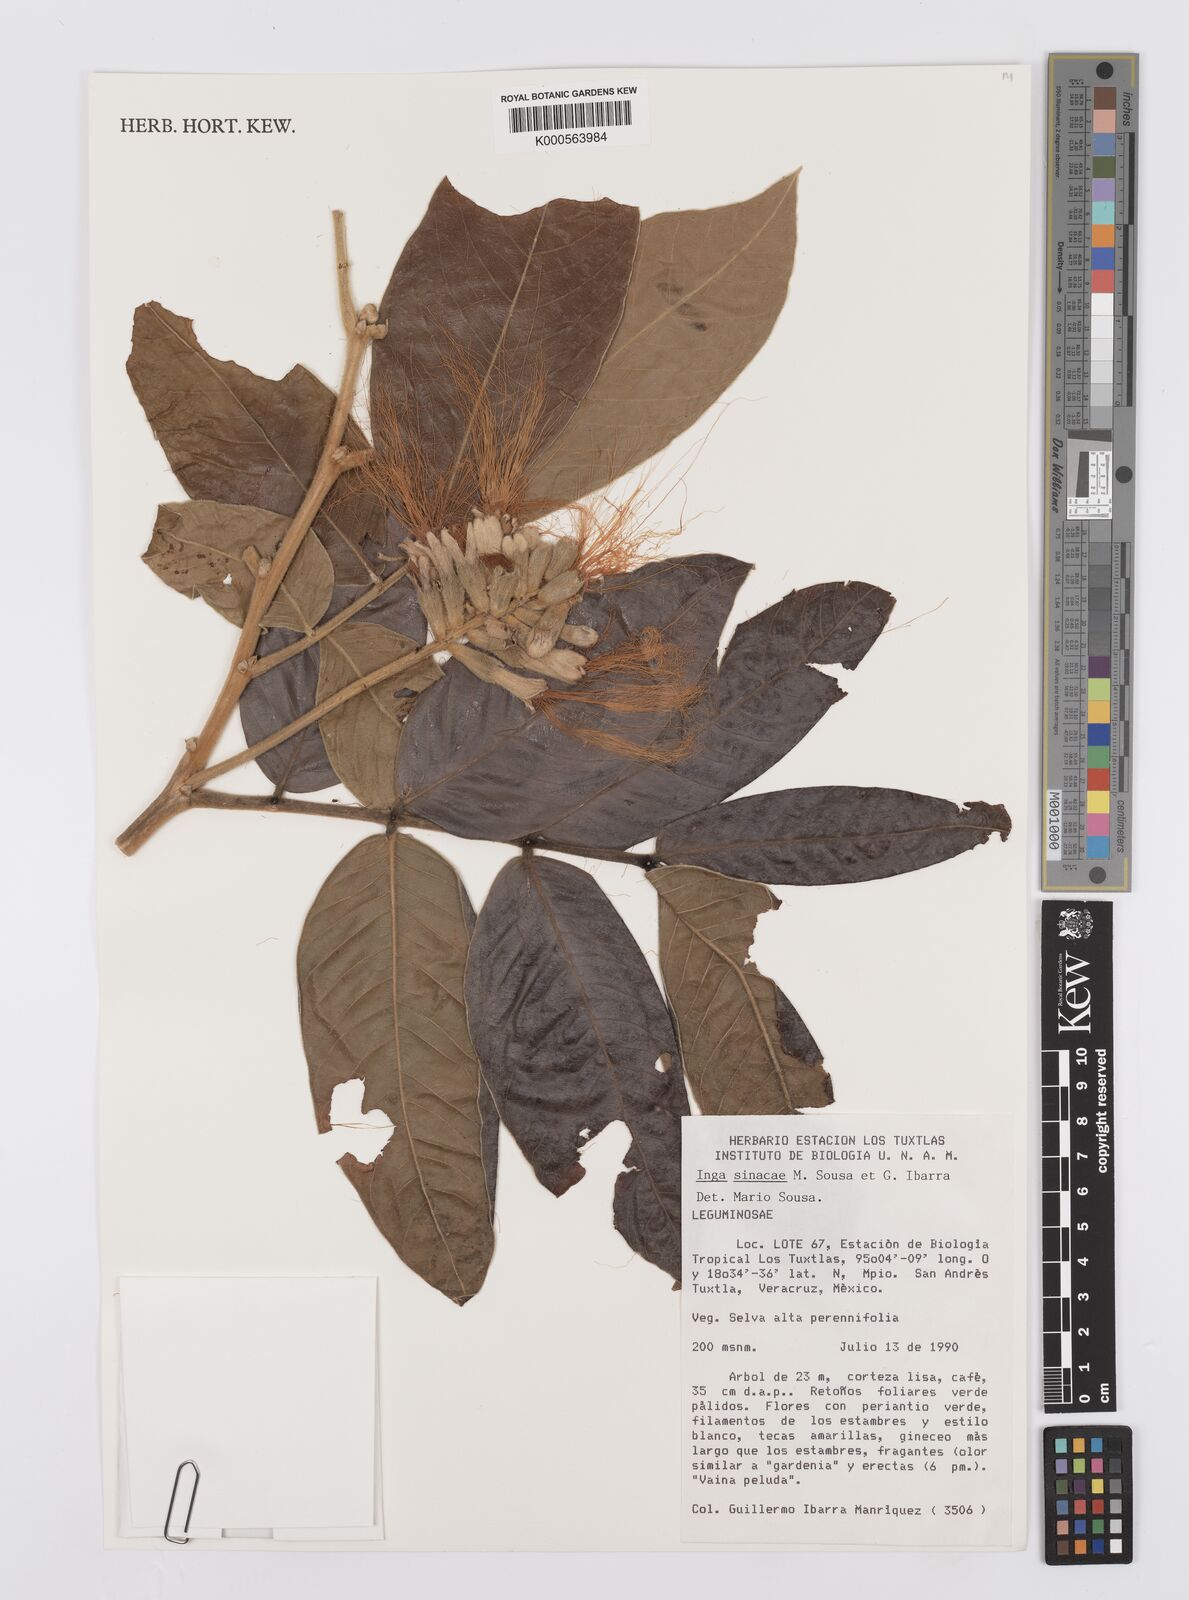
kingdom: Plantae
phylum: Tracheophyta
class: Magnoliopsida
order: Fabales
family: Fabaceae
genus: Inga
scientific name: Inga sinacae
